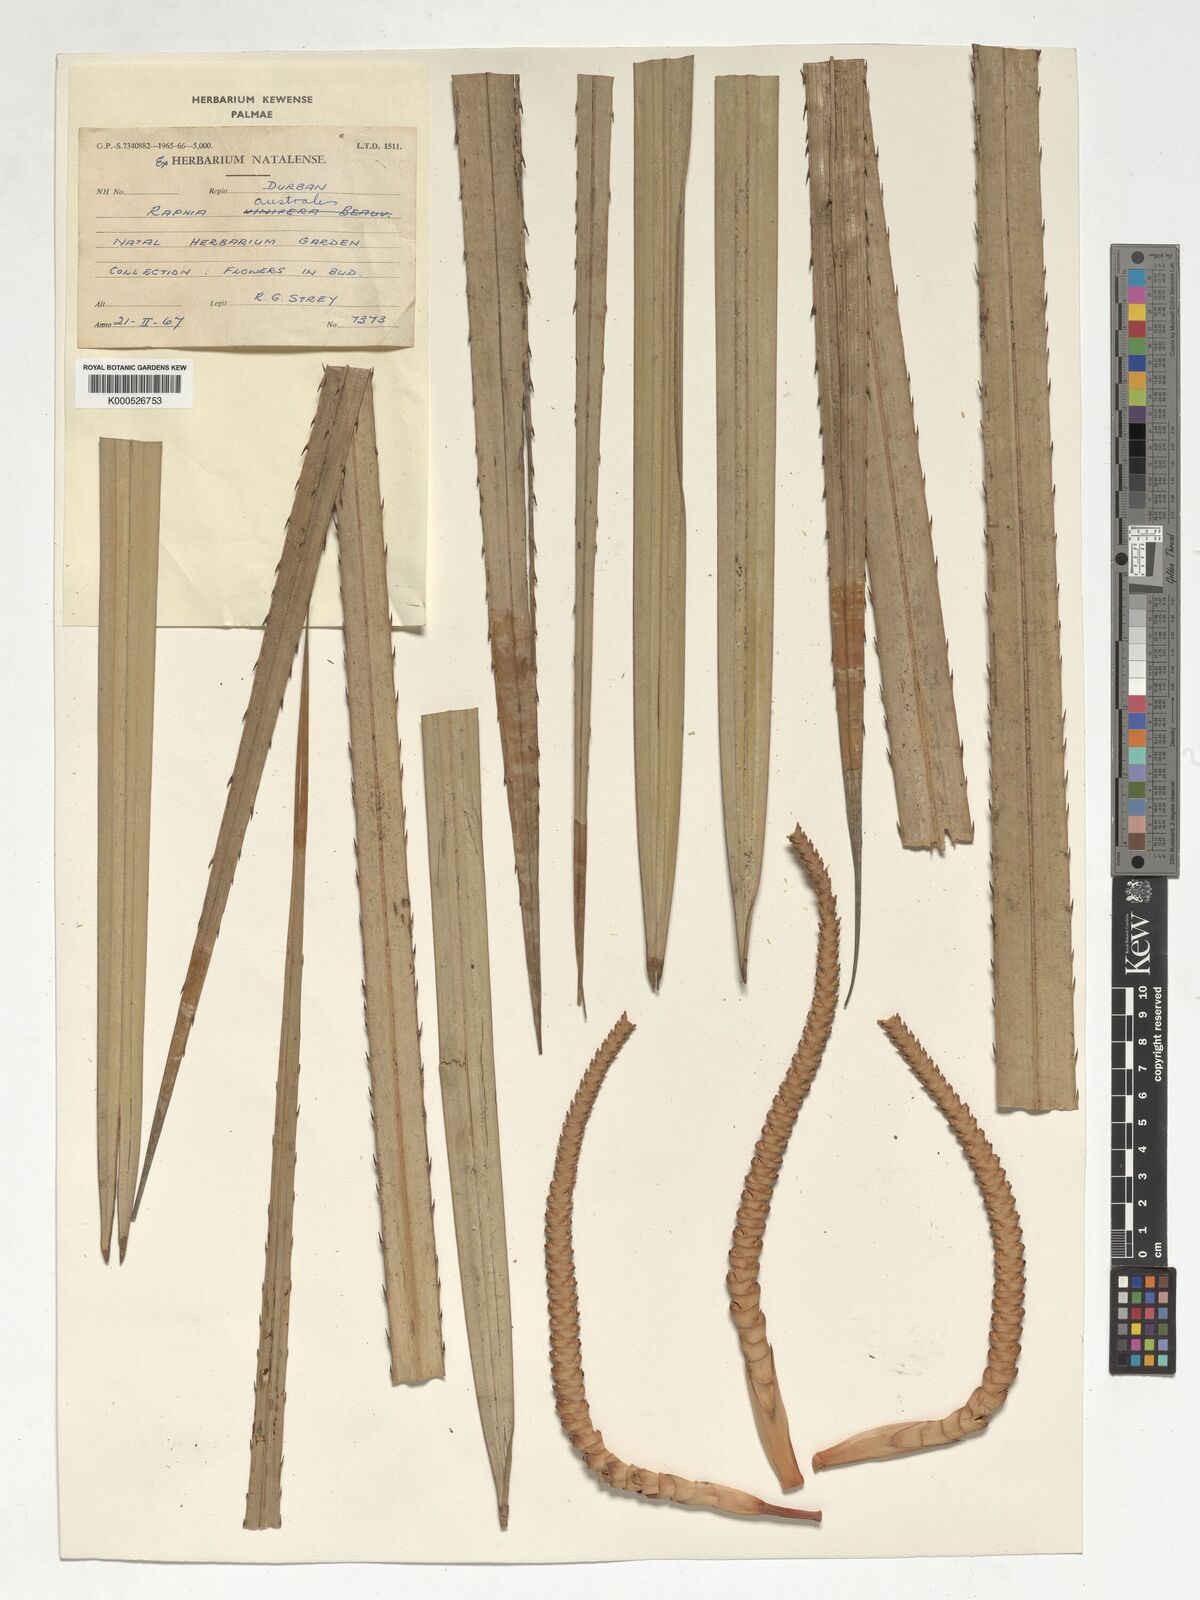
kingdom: Plantae
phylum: Tracheophyta
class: Liliopsida
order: Arecales
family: Arecaceae
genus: Raphia
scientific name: Raphia australis
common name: Giant palm
